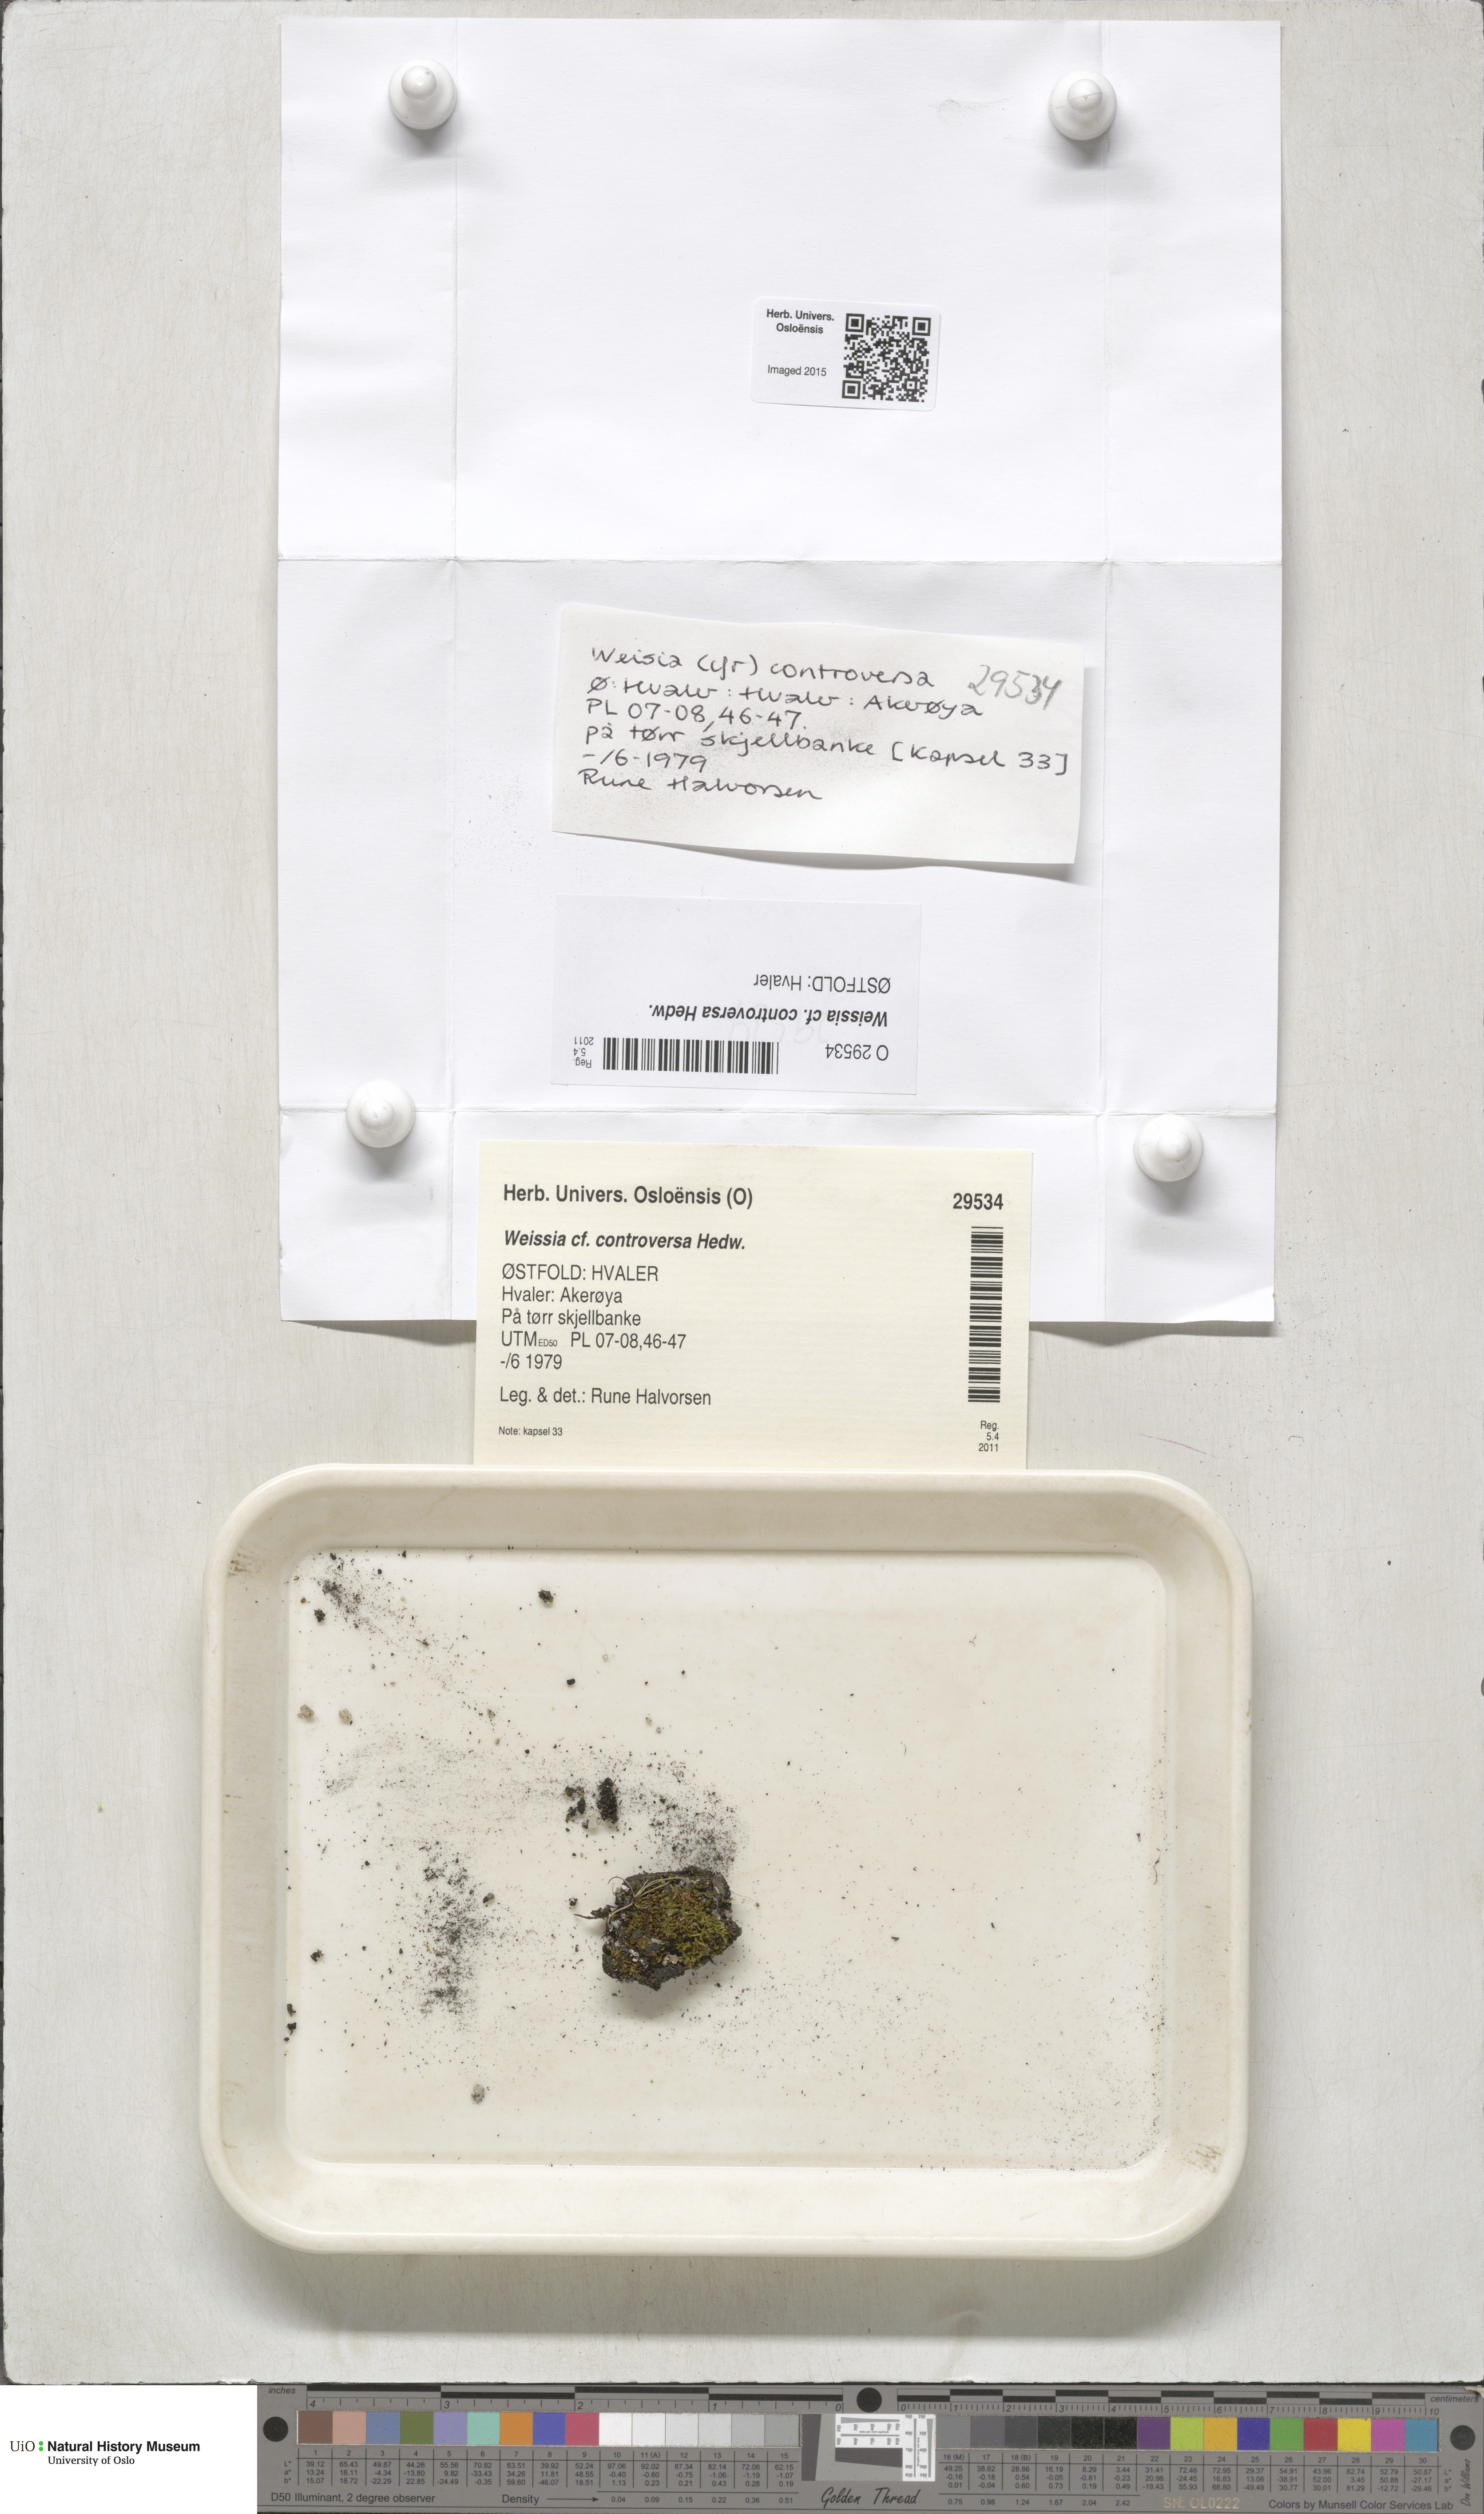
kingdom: Plantae
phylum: Bryophyta
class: Bryopsida
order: Pottiales
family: Pottiaceae
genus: Weissia
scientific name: Weissia controversa
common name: Green-tufted stubble moss
